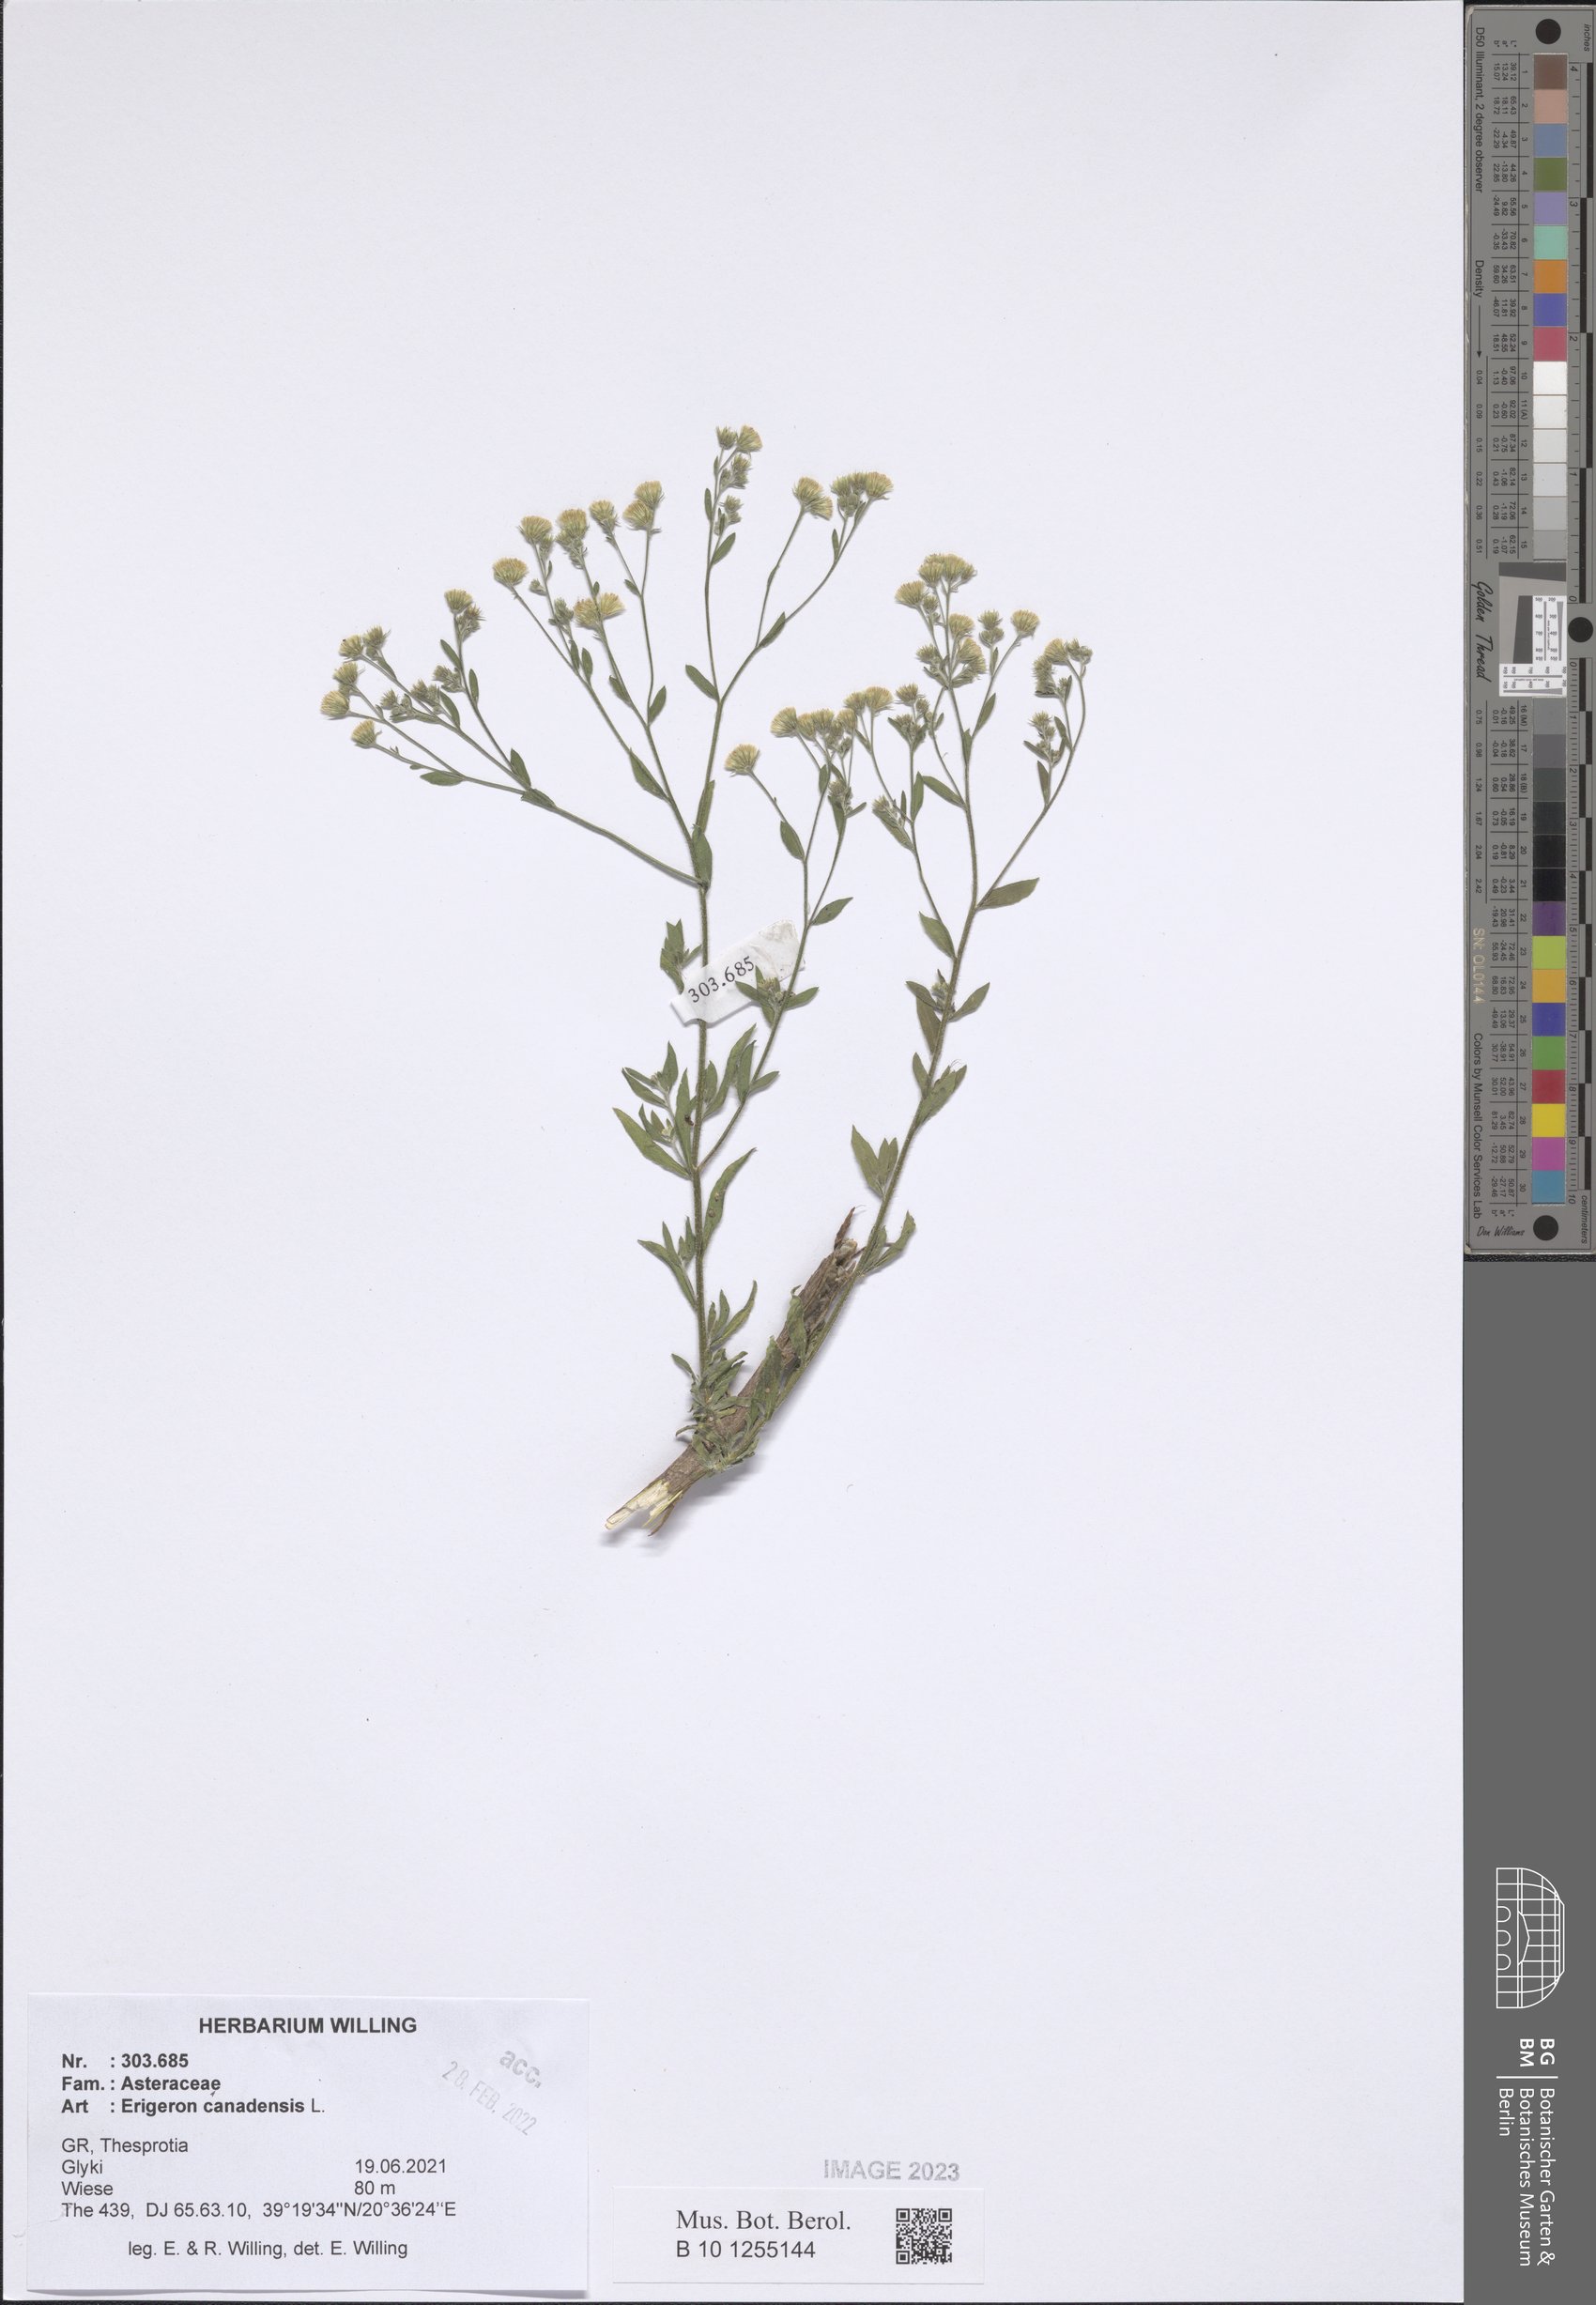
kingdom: Plantae
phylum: Tracheophyta
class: Magnoliopsida
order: Asterales
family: Asteraceae
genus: Erigeron
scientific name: Erigeron canadensis
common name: Canadian fleabane
